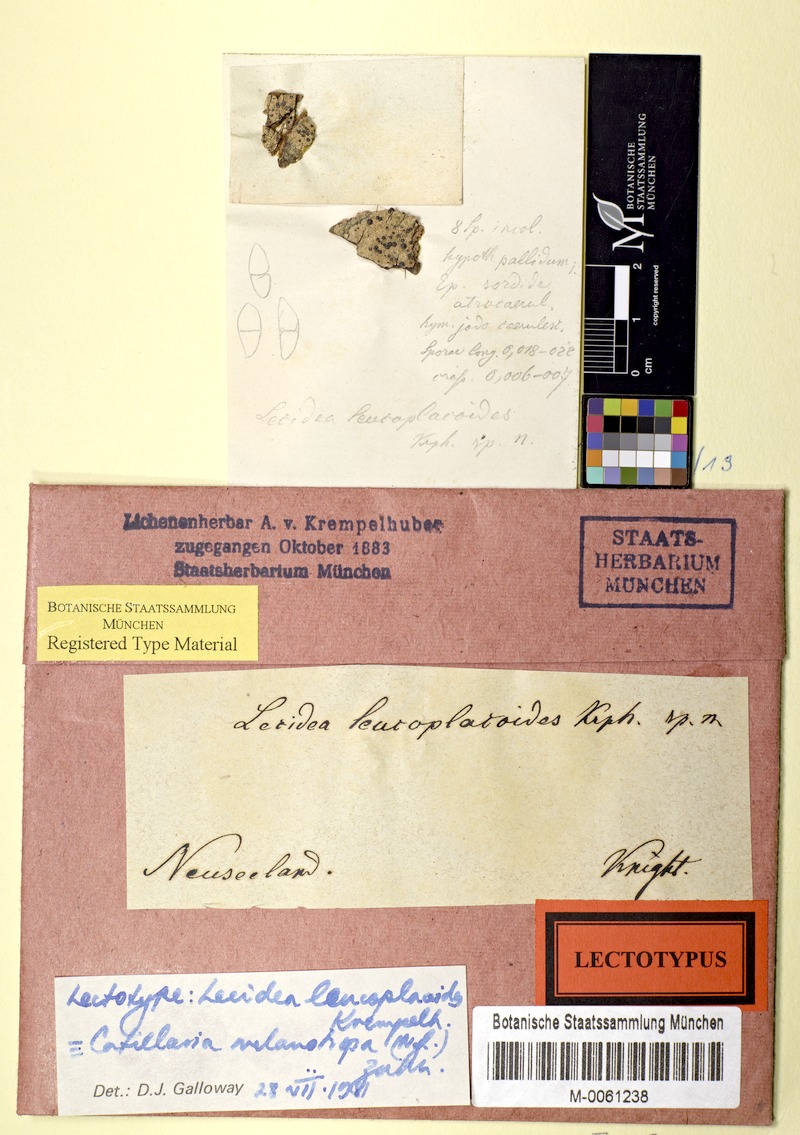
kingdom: Fungi
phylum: Ascomycota
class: Lecanoromycetes
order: Lecanorales
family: Ramalinaceae
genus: Catillochroma
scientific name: Catillochroma melanotropum
